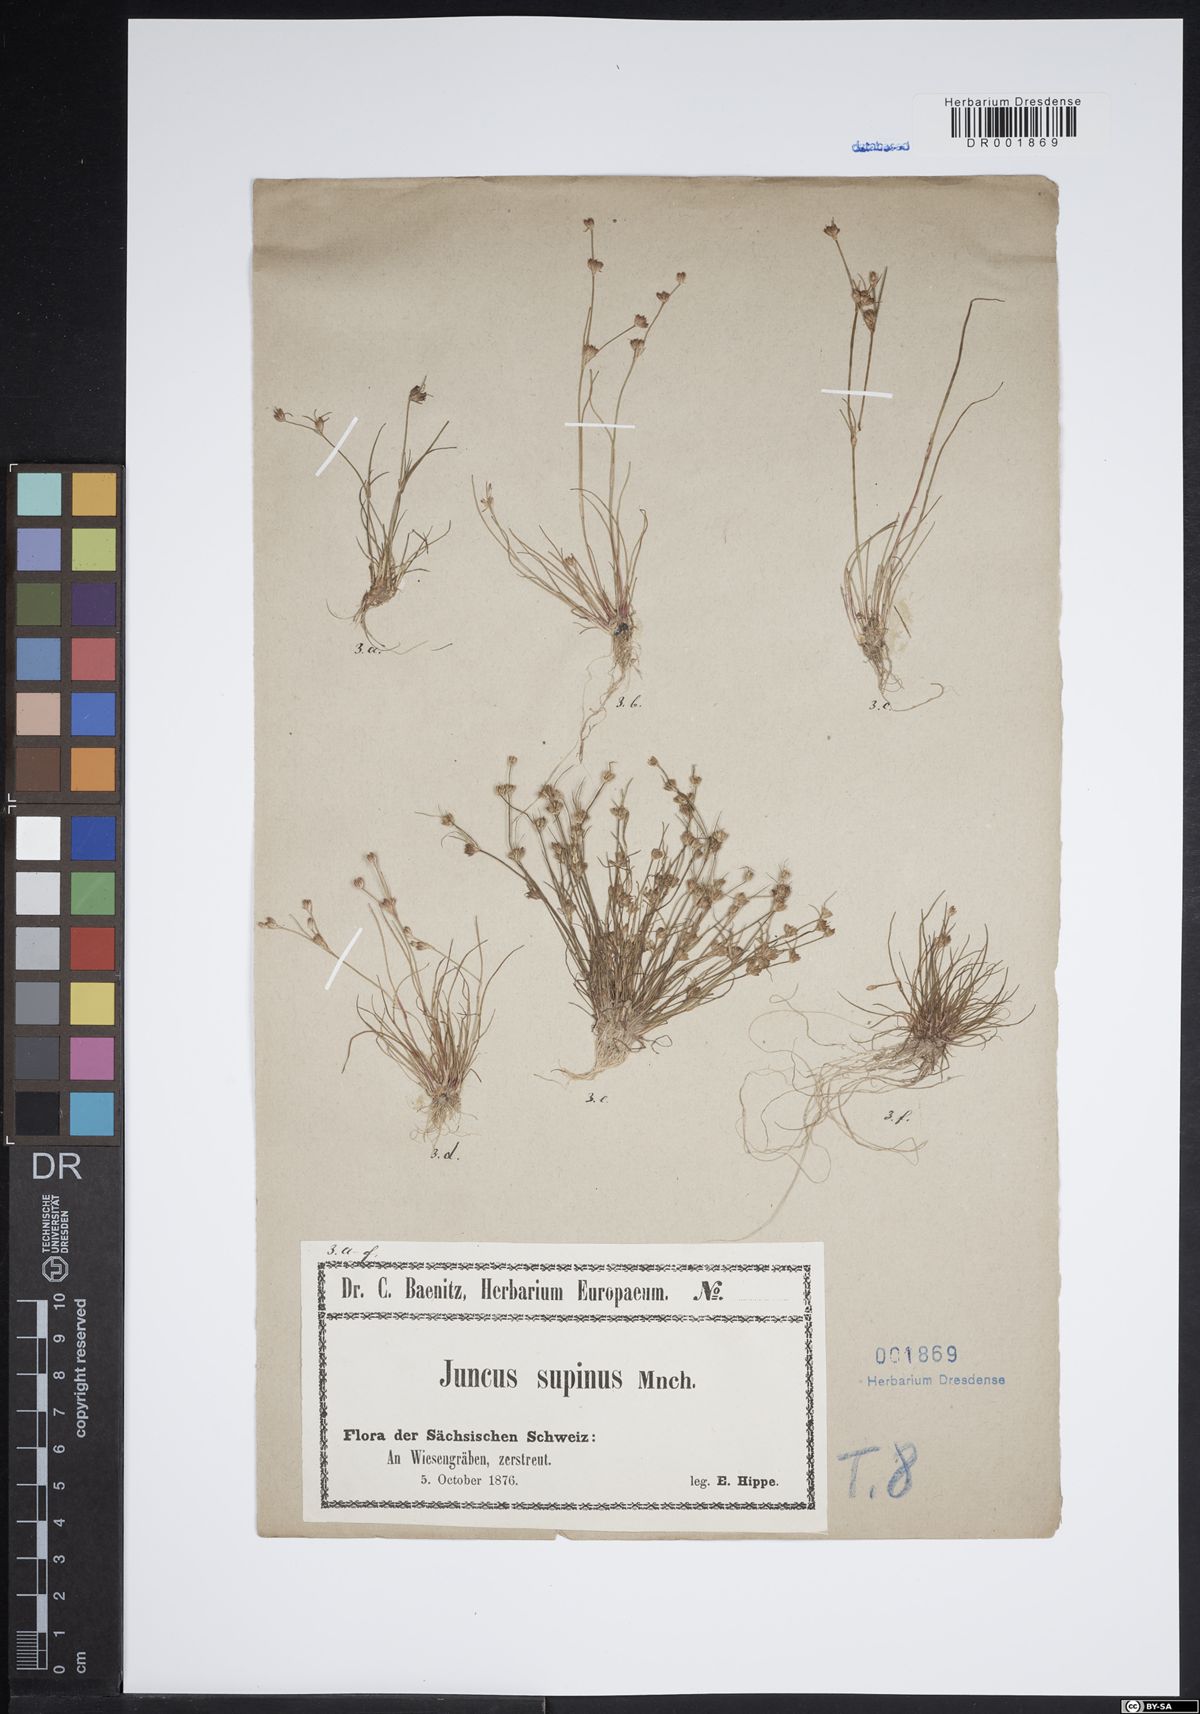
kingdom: Plantae
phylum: Tracheophyta
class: Liliopsida
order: Poales
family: Juncaceae
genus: Juncus
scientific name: Juncus bulbosus
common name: Bulbous rush
